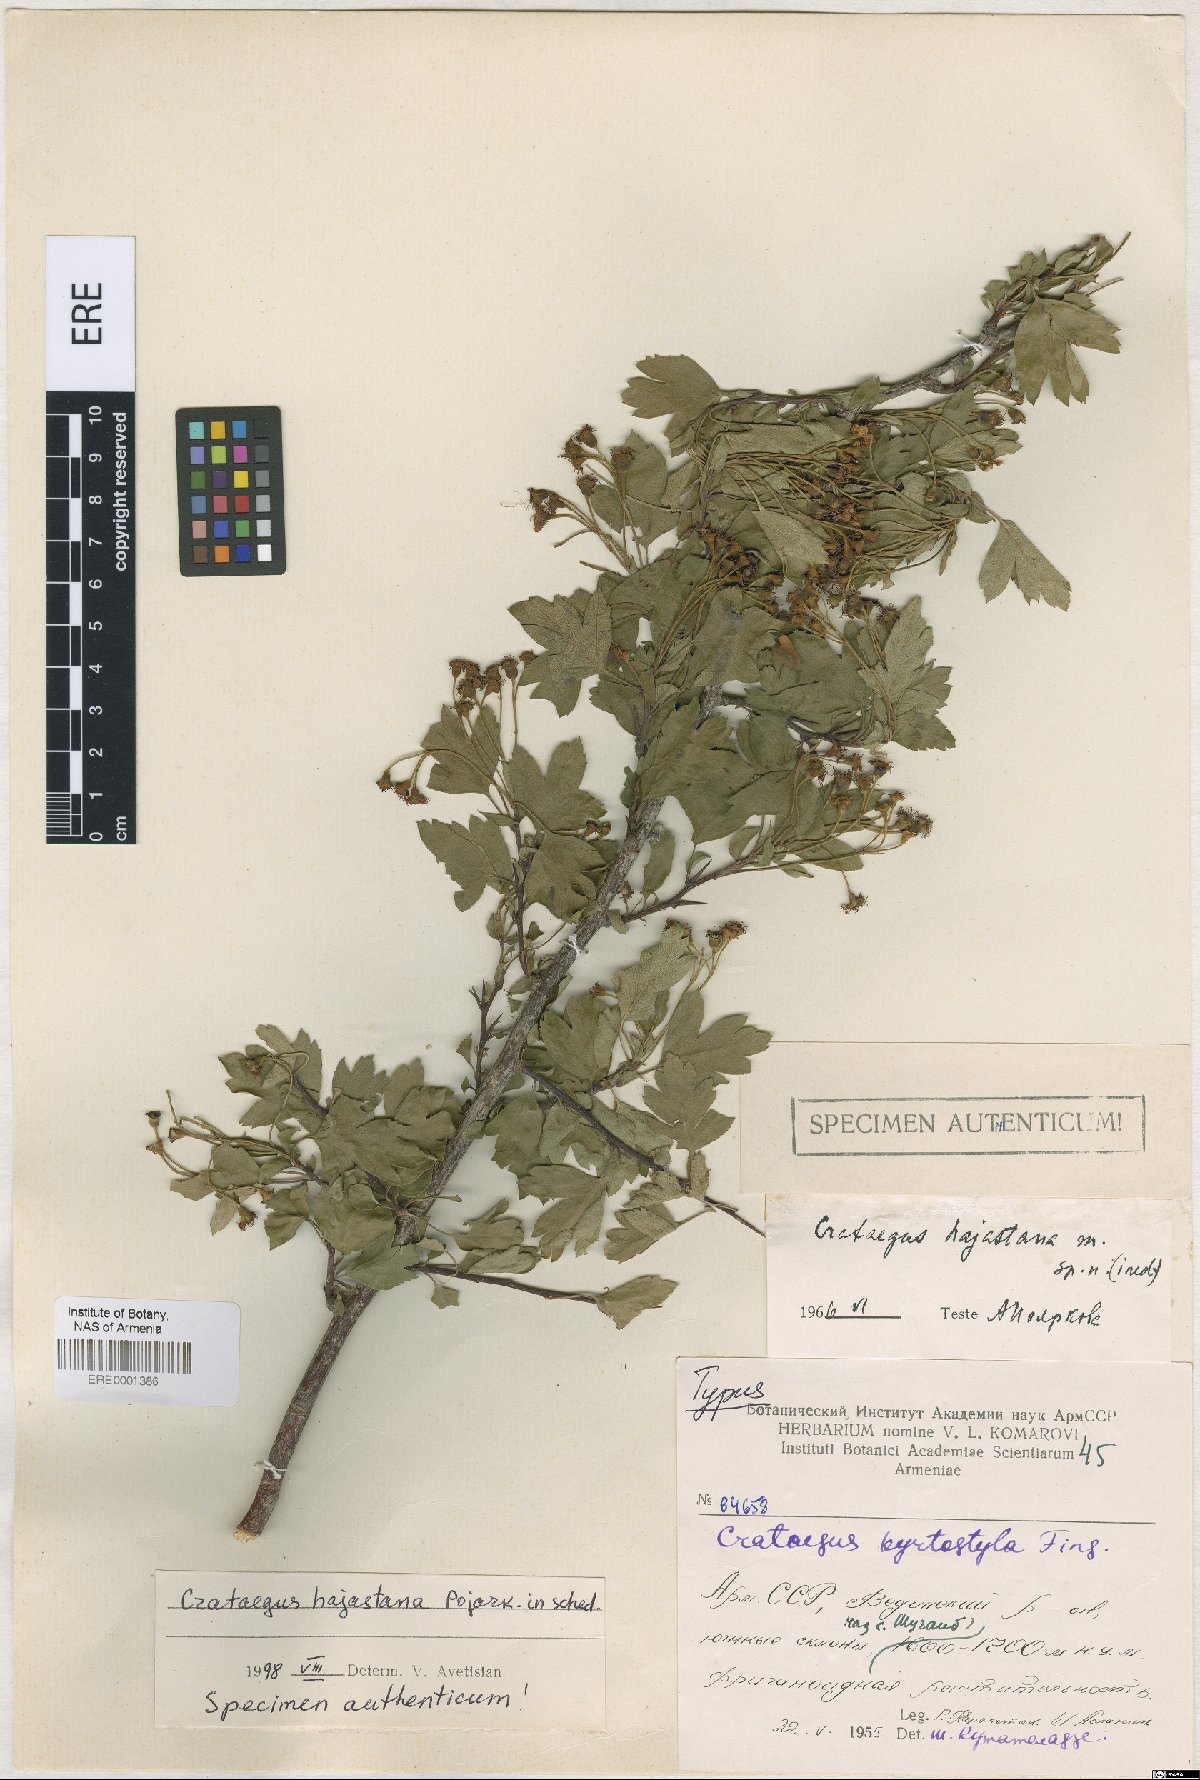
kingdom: Plantae
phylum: Tracheophyta
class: Magnoliopsida
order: Rosales
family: Rosaceae
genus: Crataegus
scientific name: Crataegus
